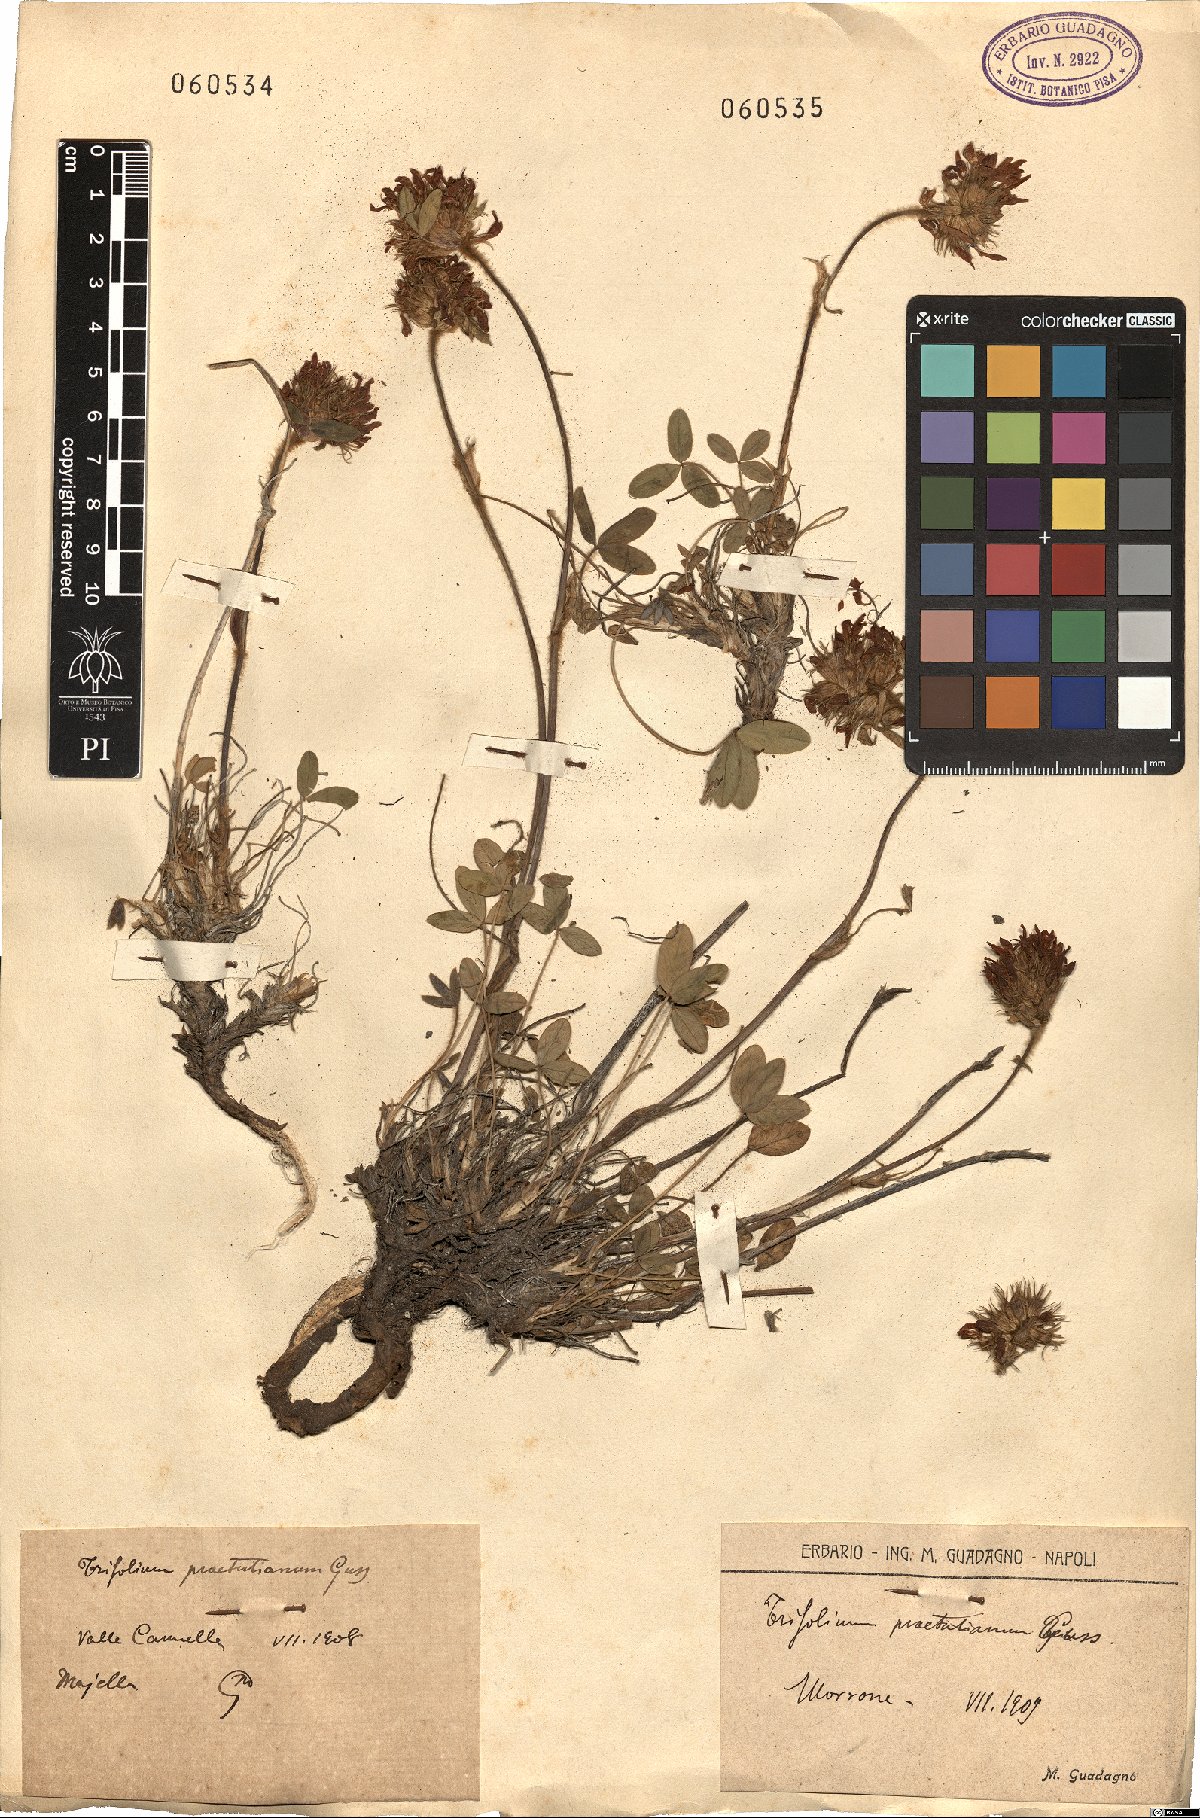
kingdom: Plantae
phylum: Tracheophyta
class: Magnoliopsida
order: Fabales
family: Fabaceae
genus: Trifolium
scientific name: Trifolium noricum
